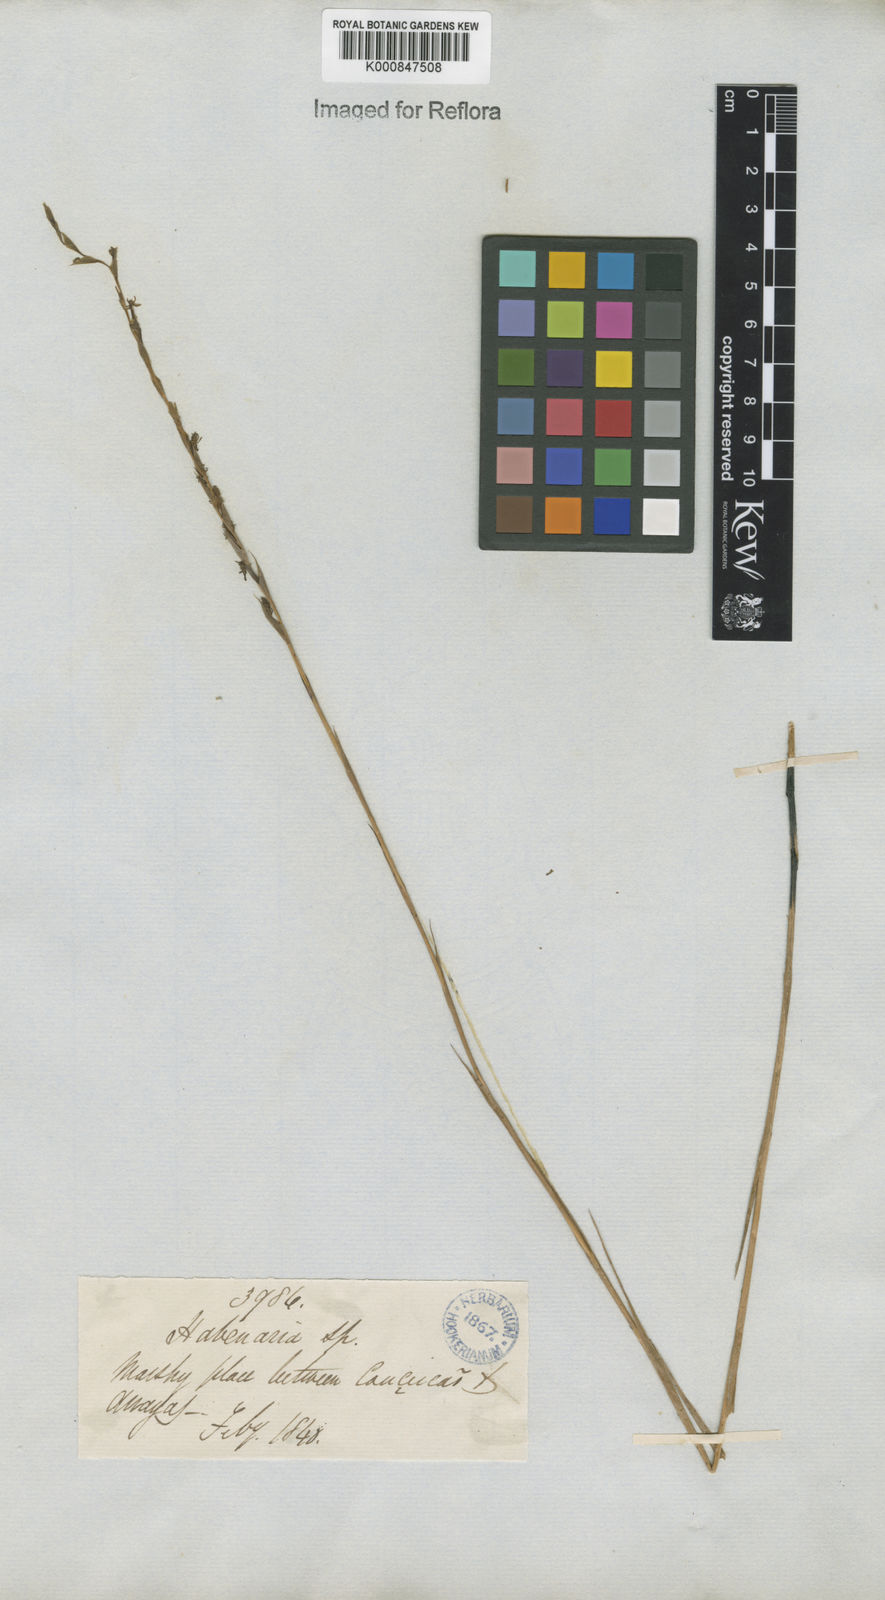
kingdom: Plantae
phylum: Tracheophyta
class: Liliopsida
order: Asparagales
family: Orchidaceae
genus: Habenaria
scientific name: Habenaria
